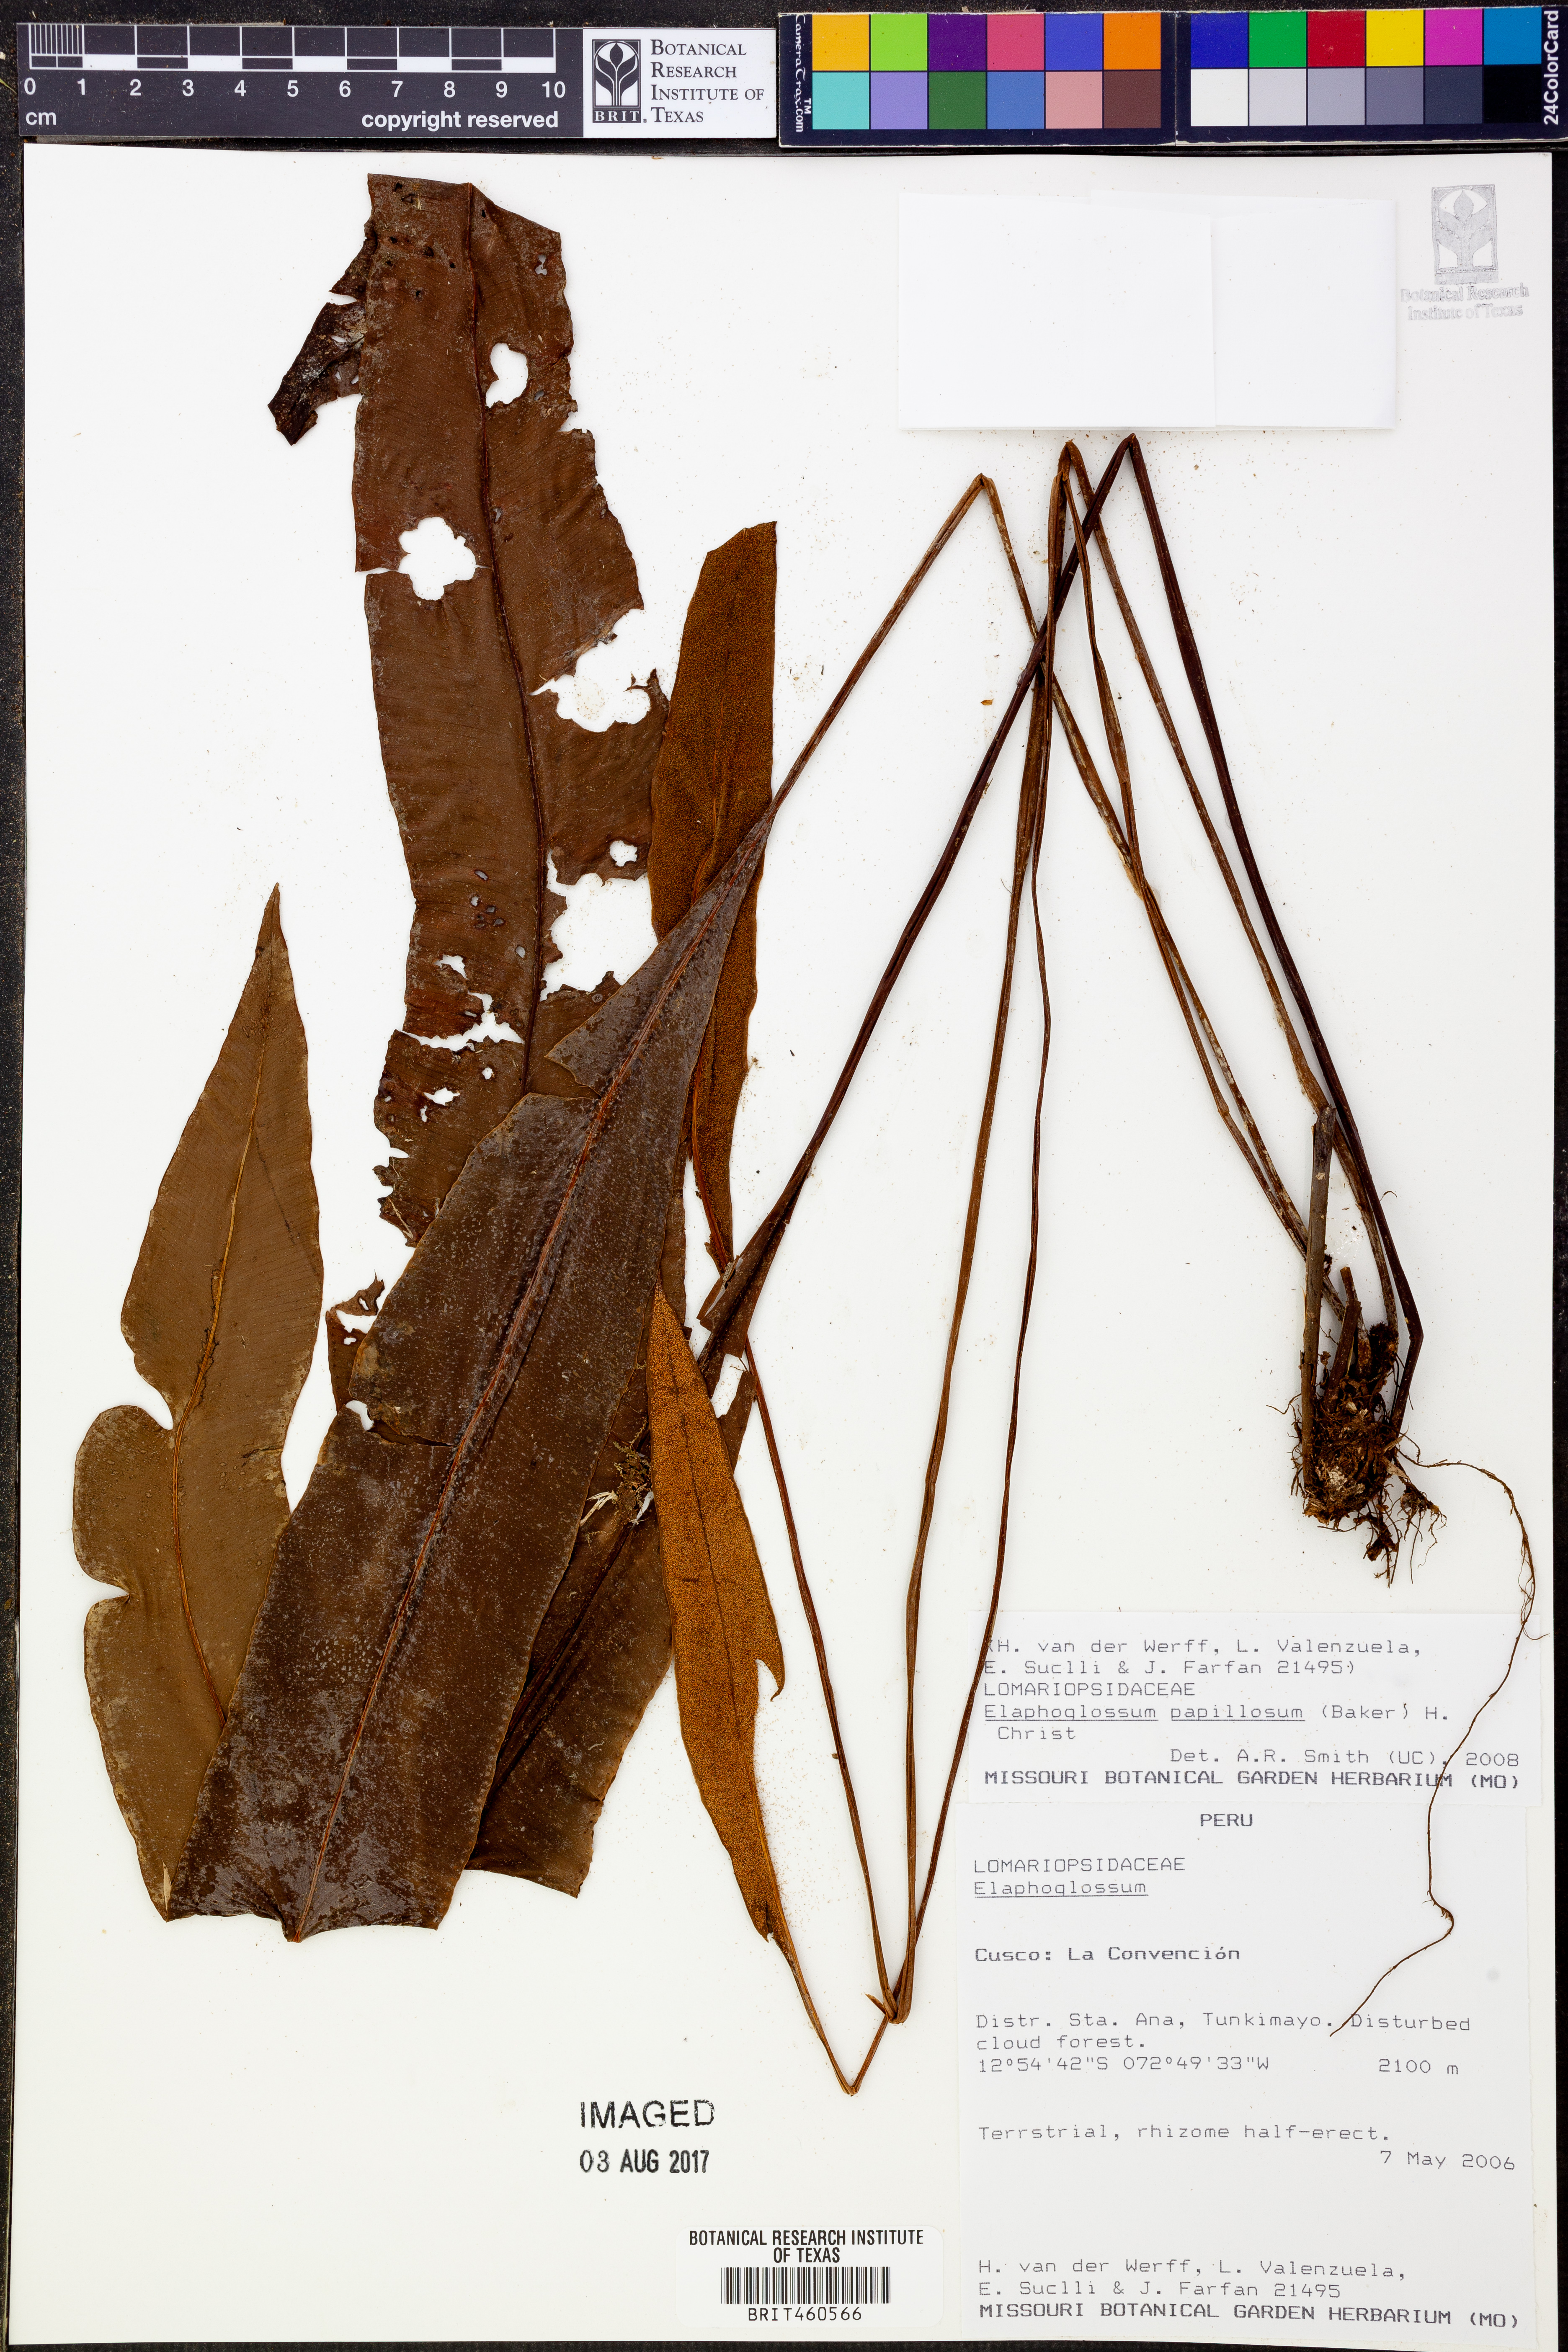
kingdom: Plantae
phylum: Tracheophyta
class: Polypodiopsida
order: Polypodiales
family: Dryopteridaceae
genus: Elaphoglossum
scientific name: Elaphoglossum papillosum
